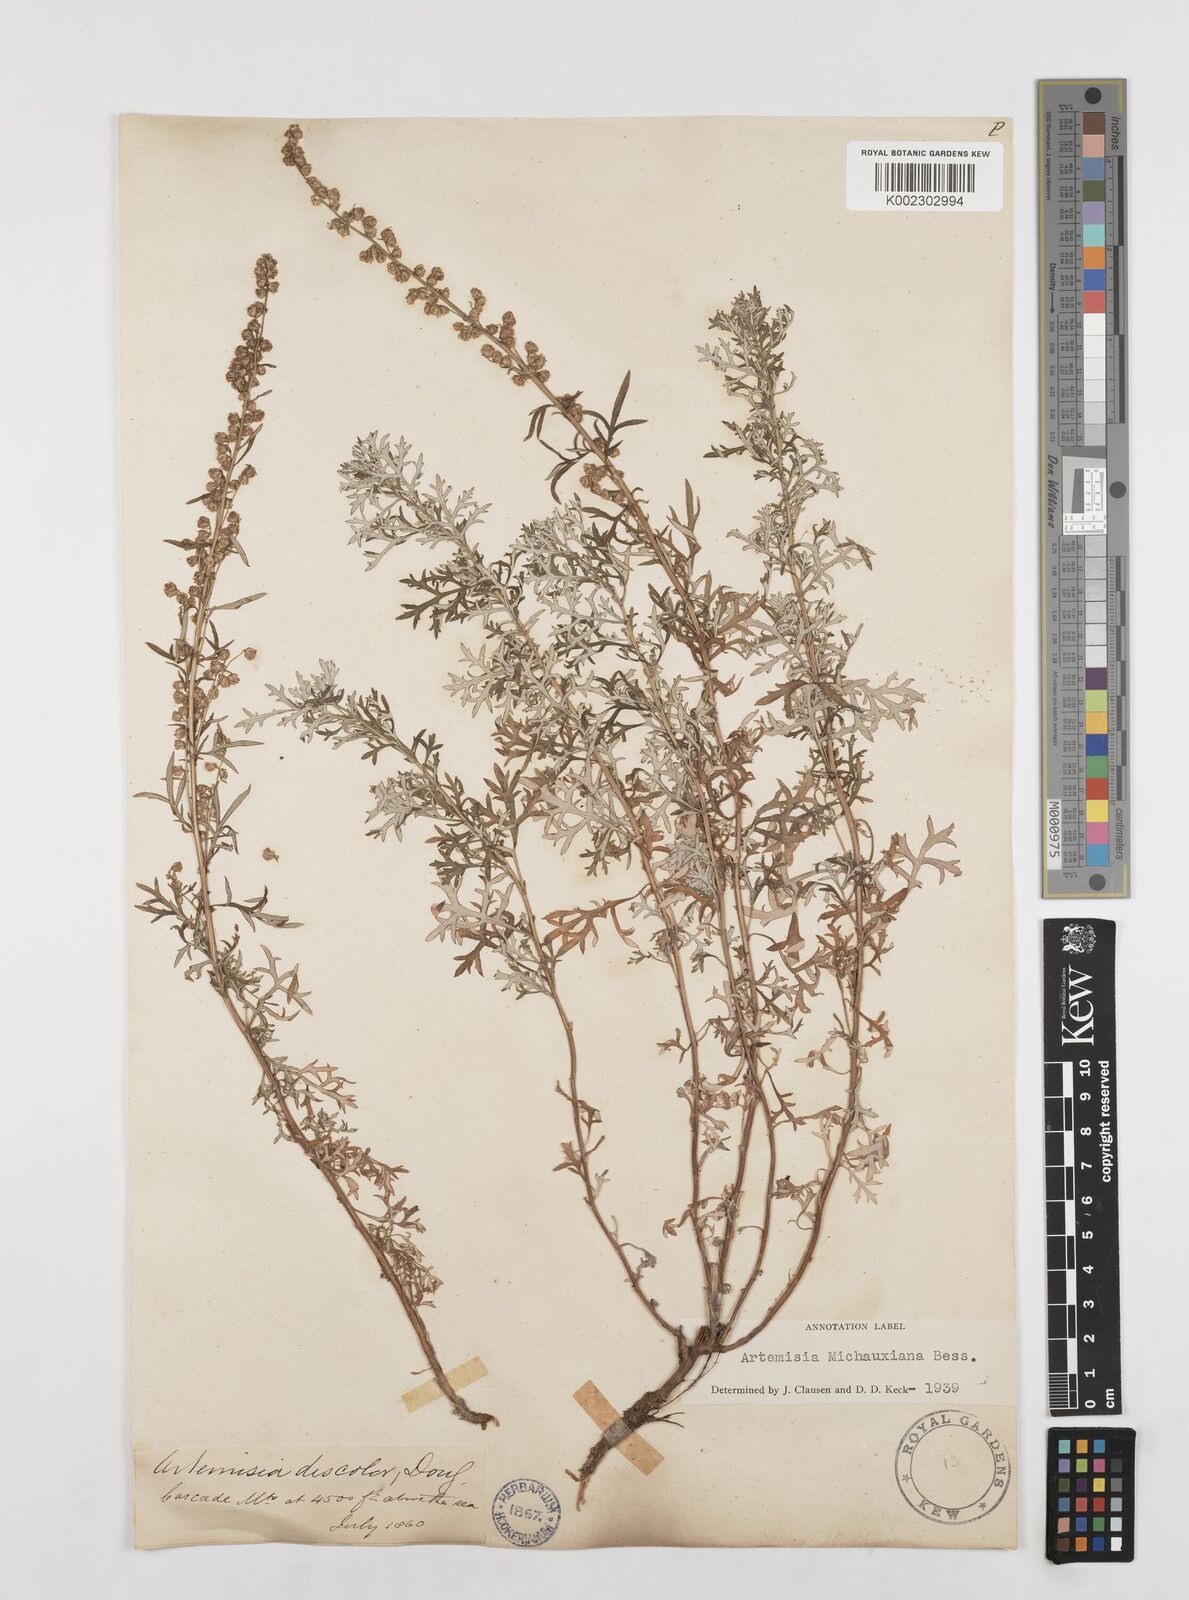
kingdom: Plantae
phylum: Tracheophyta
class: Magnoliopsida
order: Asterales
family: Asteraceae
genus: Artemisia
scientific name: Artemisia michauxiana
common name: Lemon sagewort
